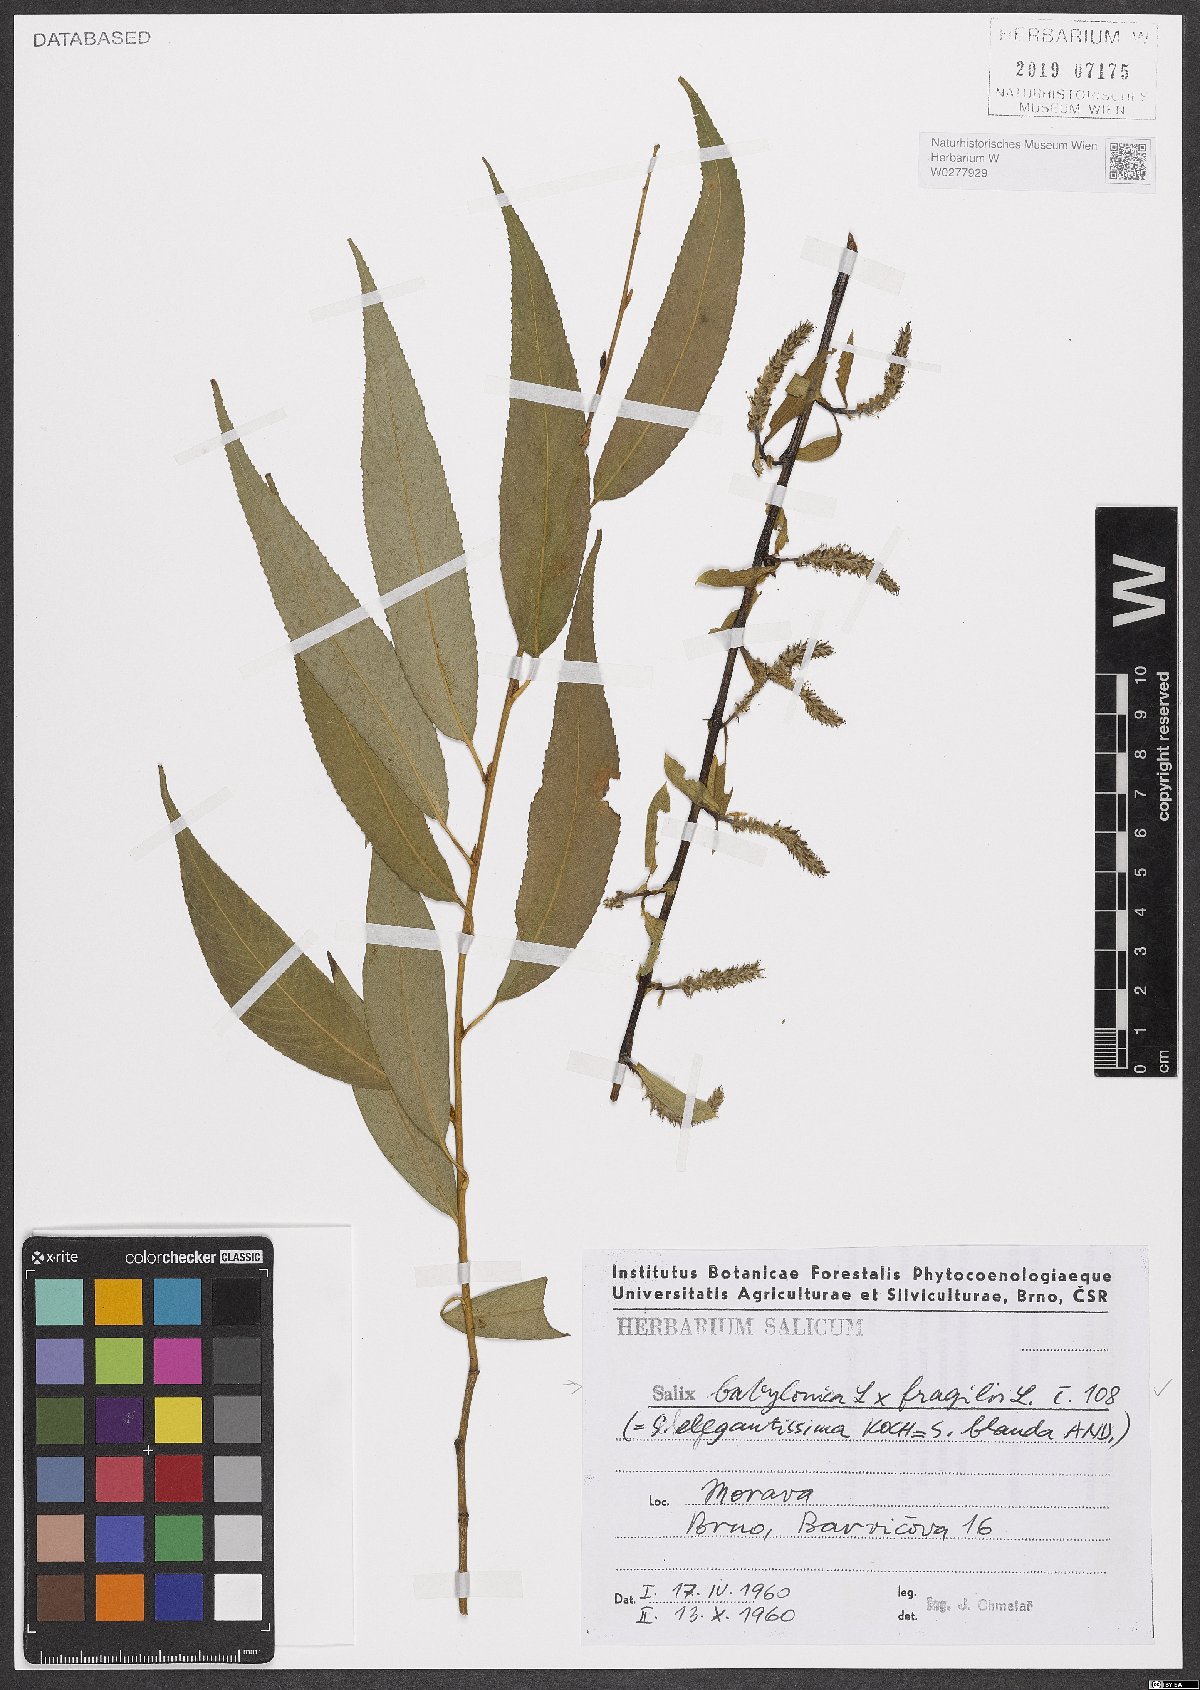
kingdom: Plantae
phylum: Tracheophyta
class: Magnoliopsida
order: Malpighiales
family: Salicaceae
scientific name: Salicaceae
